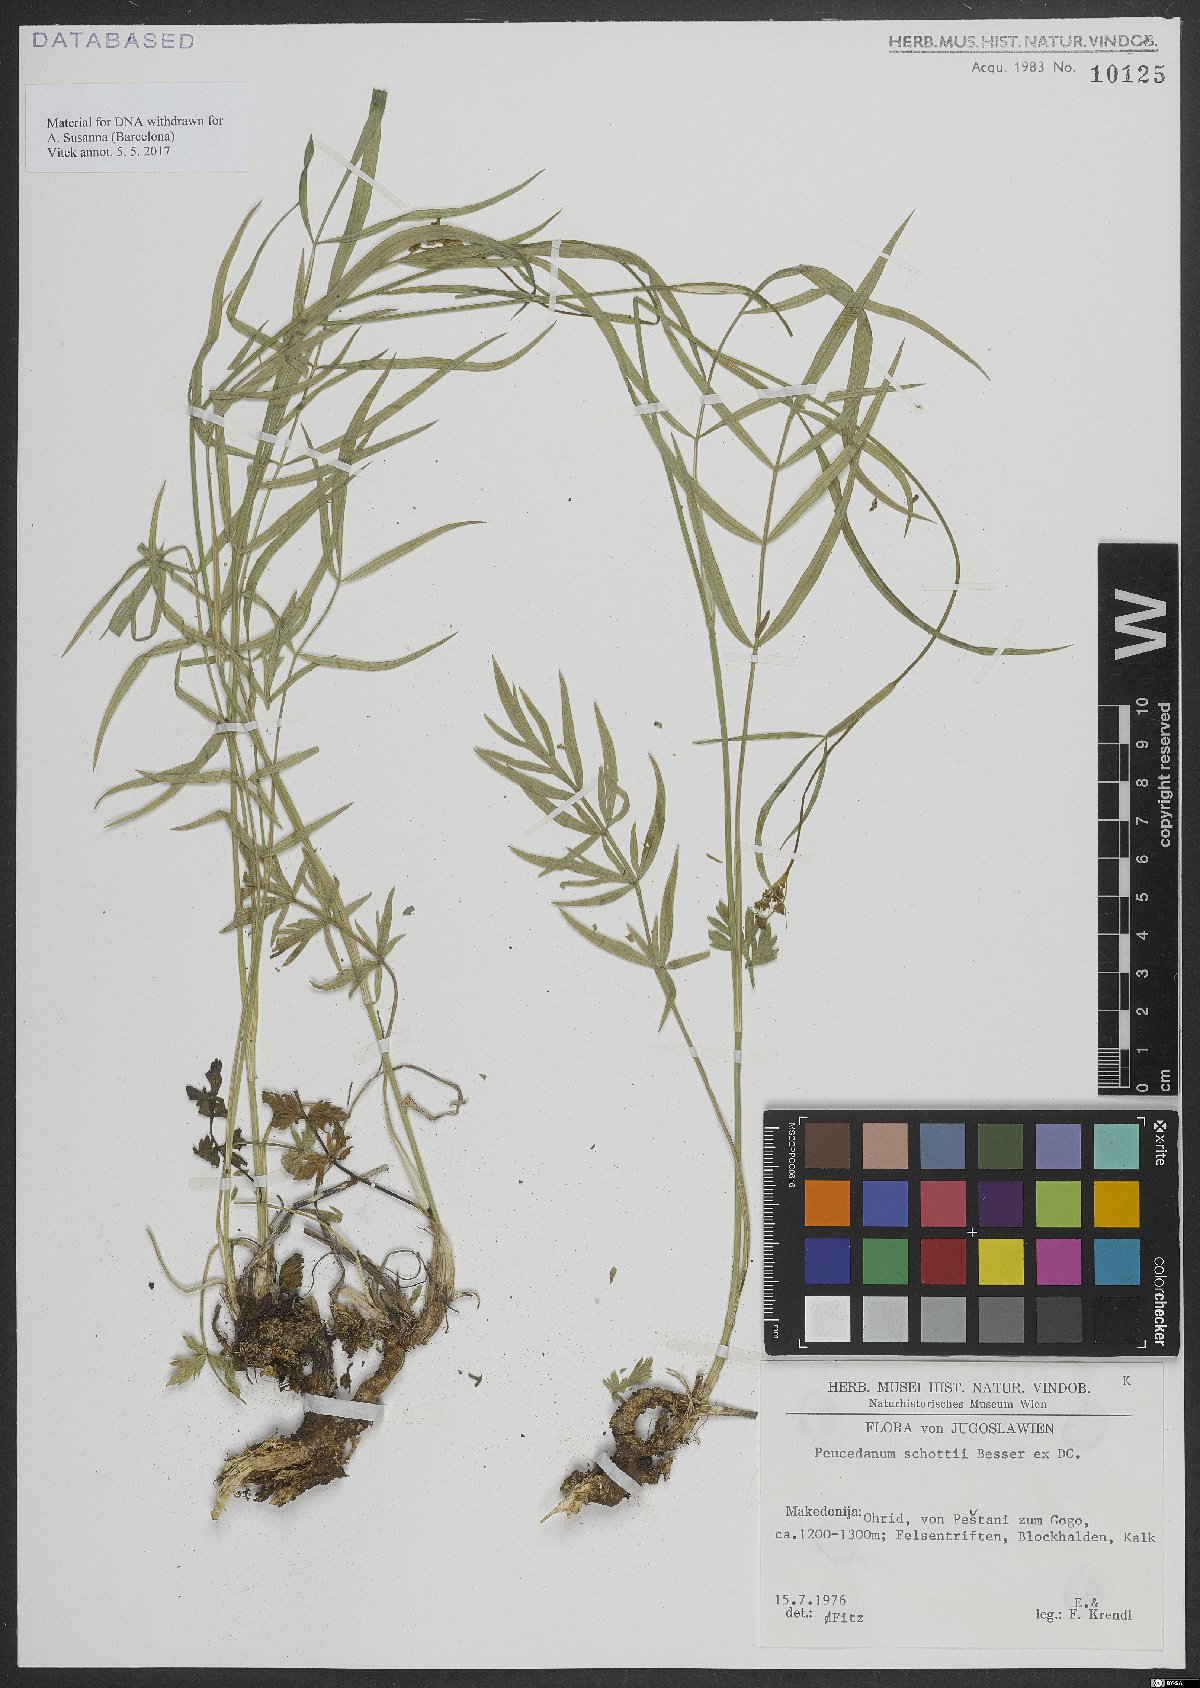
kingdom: Plantae
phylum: Tracheophyta
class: Magnoliopsida
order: Apiales
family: Apiaceae
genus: Peucedanum
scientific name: Peucedanum
